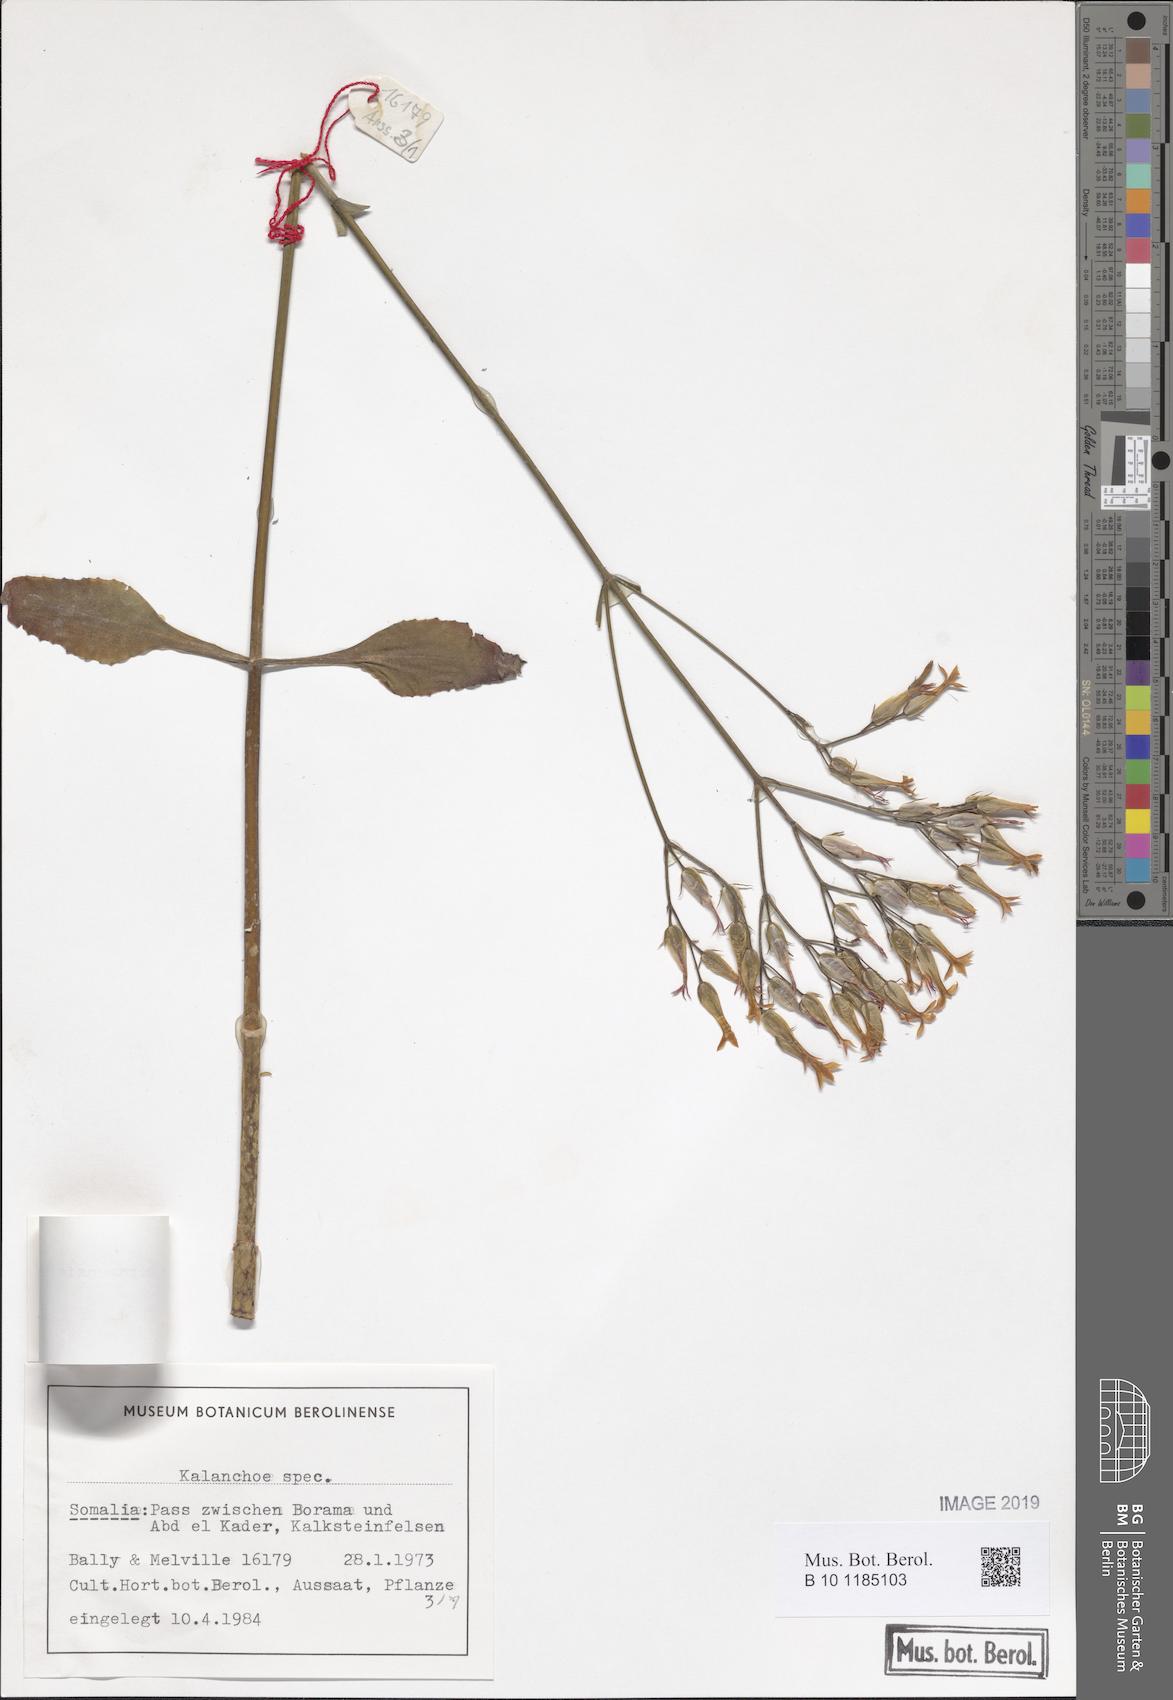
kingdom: Plantae
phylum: Tracheophyta
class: Magnoliopsida
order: Saxifragales
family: Crassulaceae
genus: Kalanchoe
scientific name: Kalanchoe
